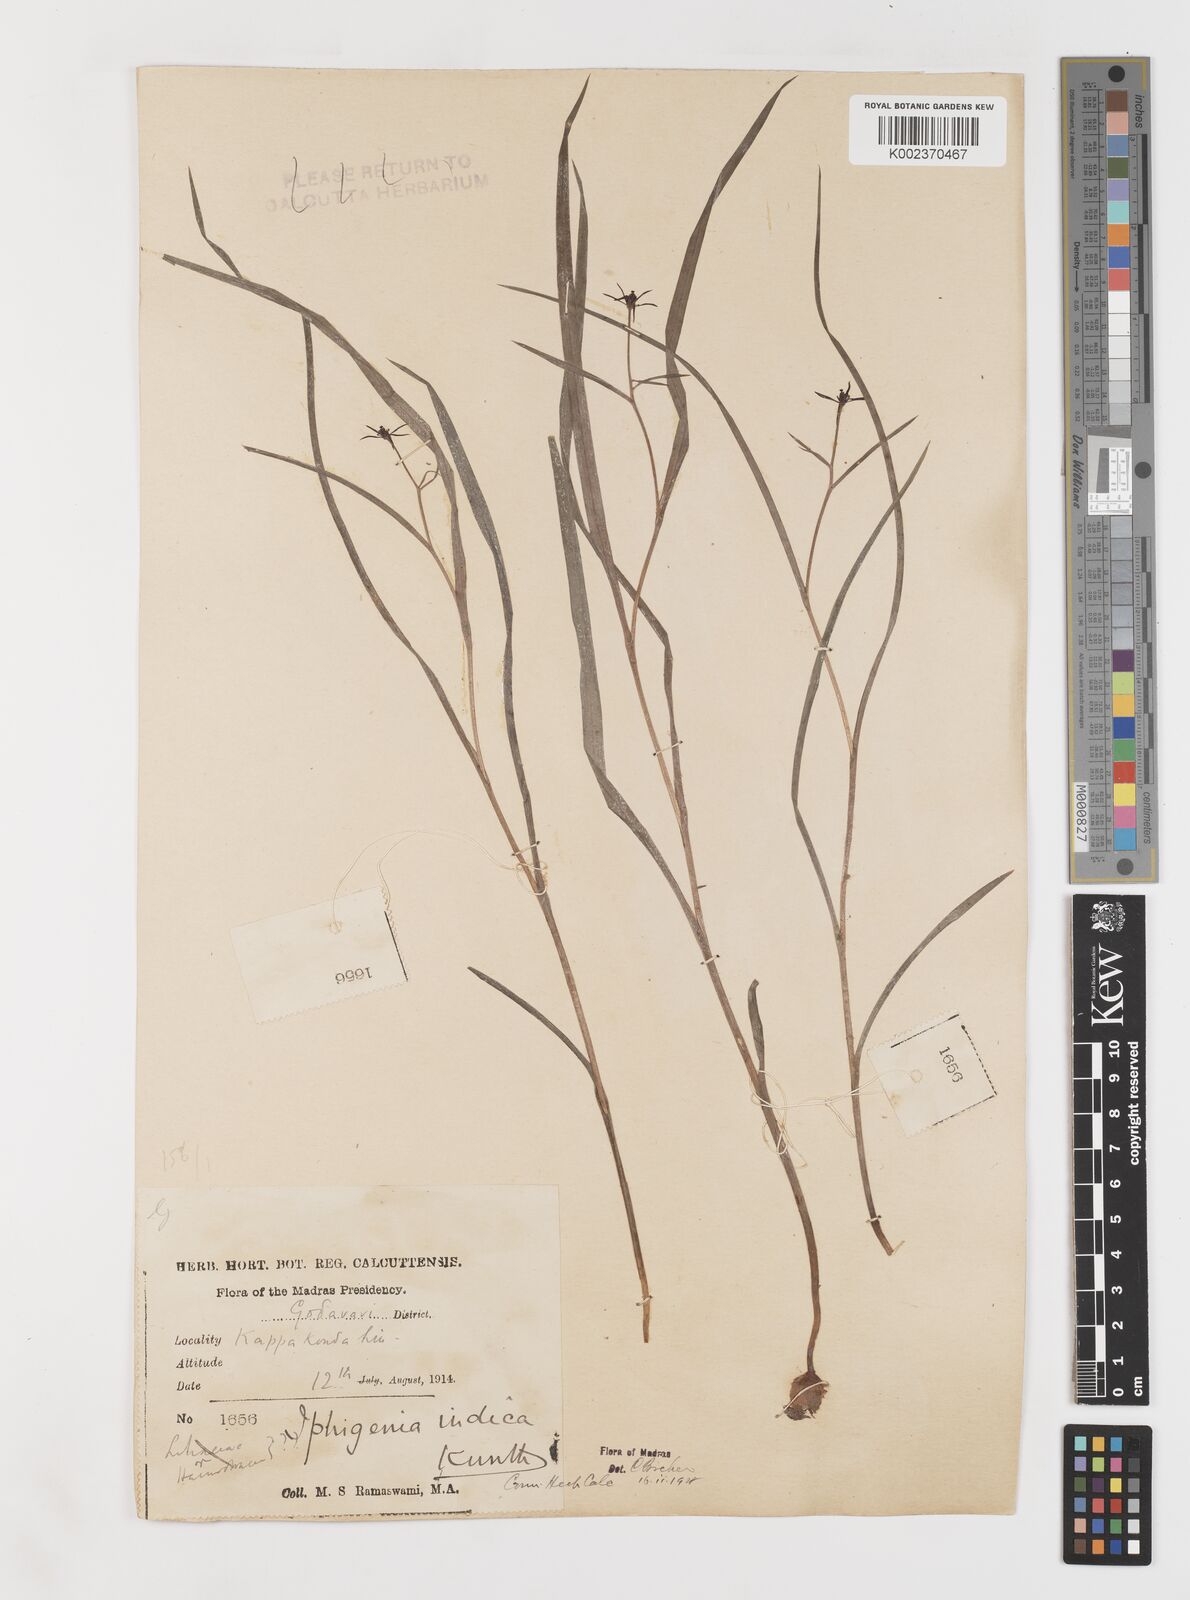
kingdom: Plantae
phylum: Tracheophyta
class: Liliopsida
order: Liliales
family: Colchicaceae
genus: Iphigenia
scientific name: Iphigenia indica
